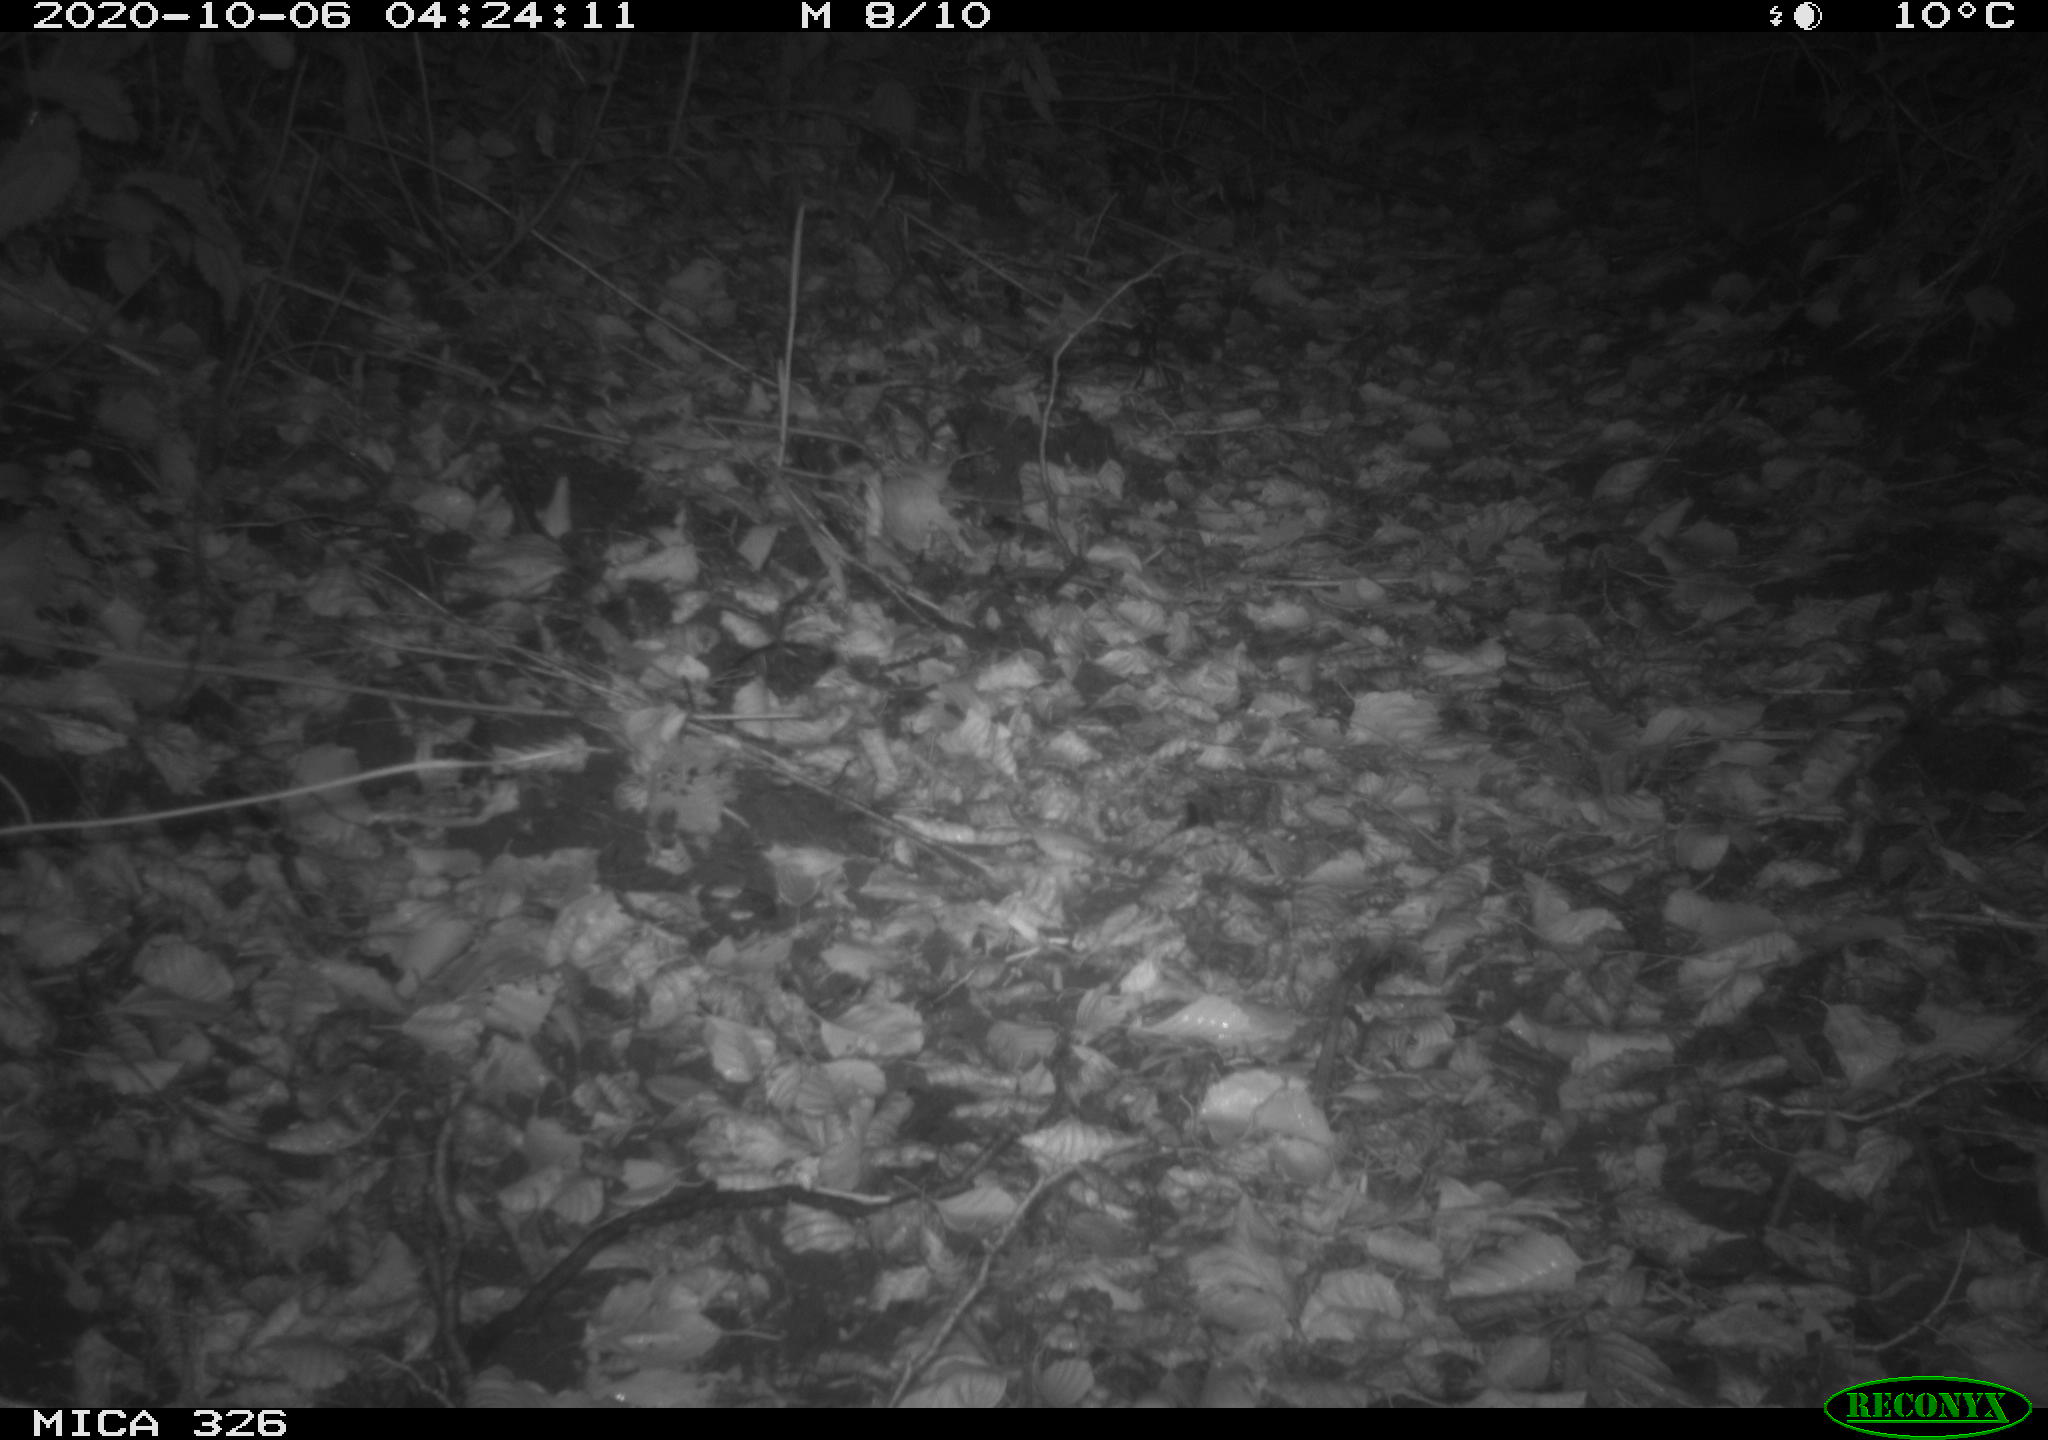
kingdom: Animalia
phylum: Chordata
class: Mammalia
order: Erinaceomorpha
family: Erinaceidae
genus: Erinaceus
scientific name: Erinaceus europaeus
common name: West european hedgehog
